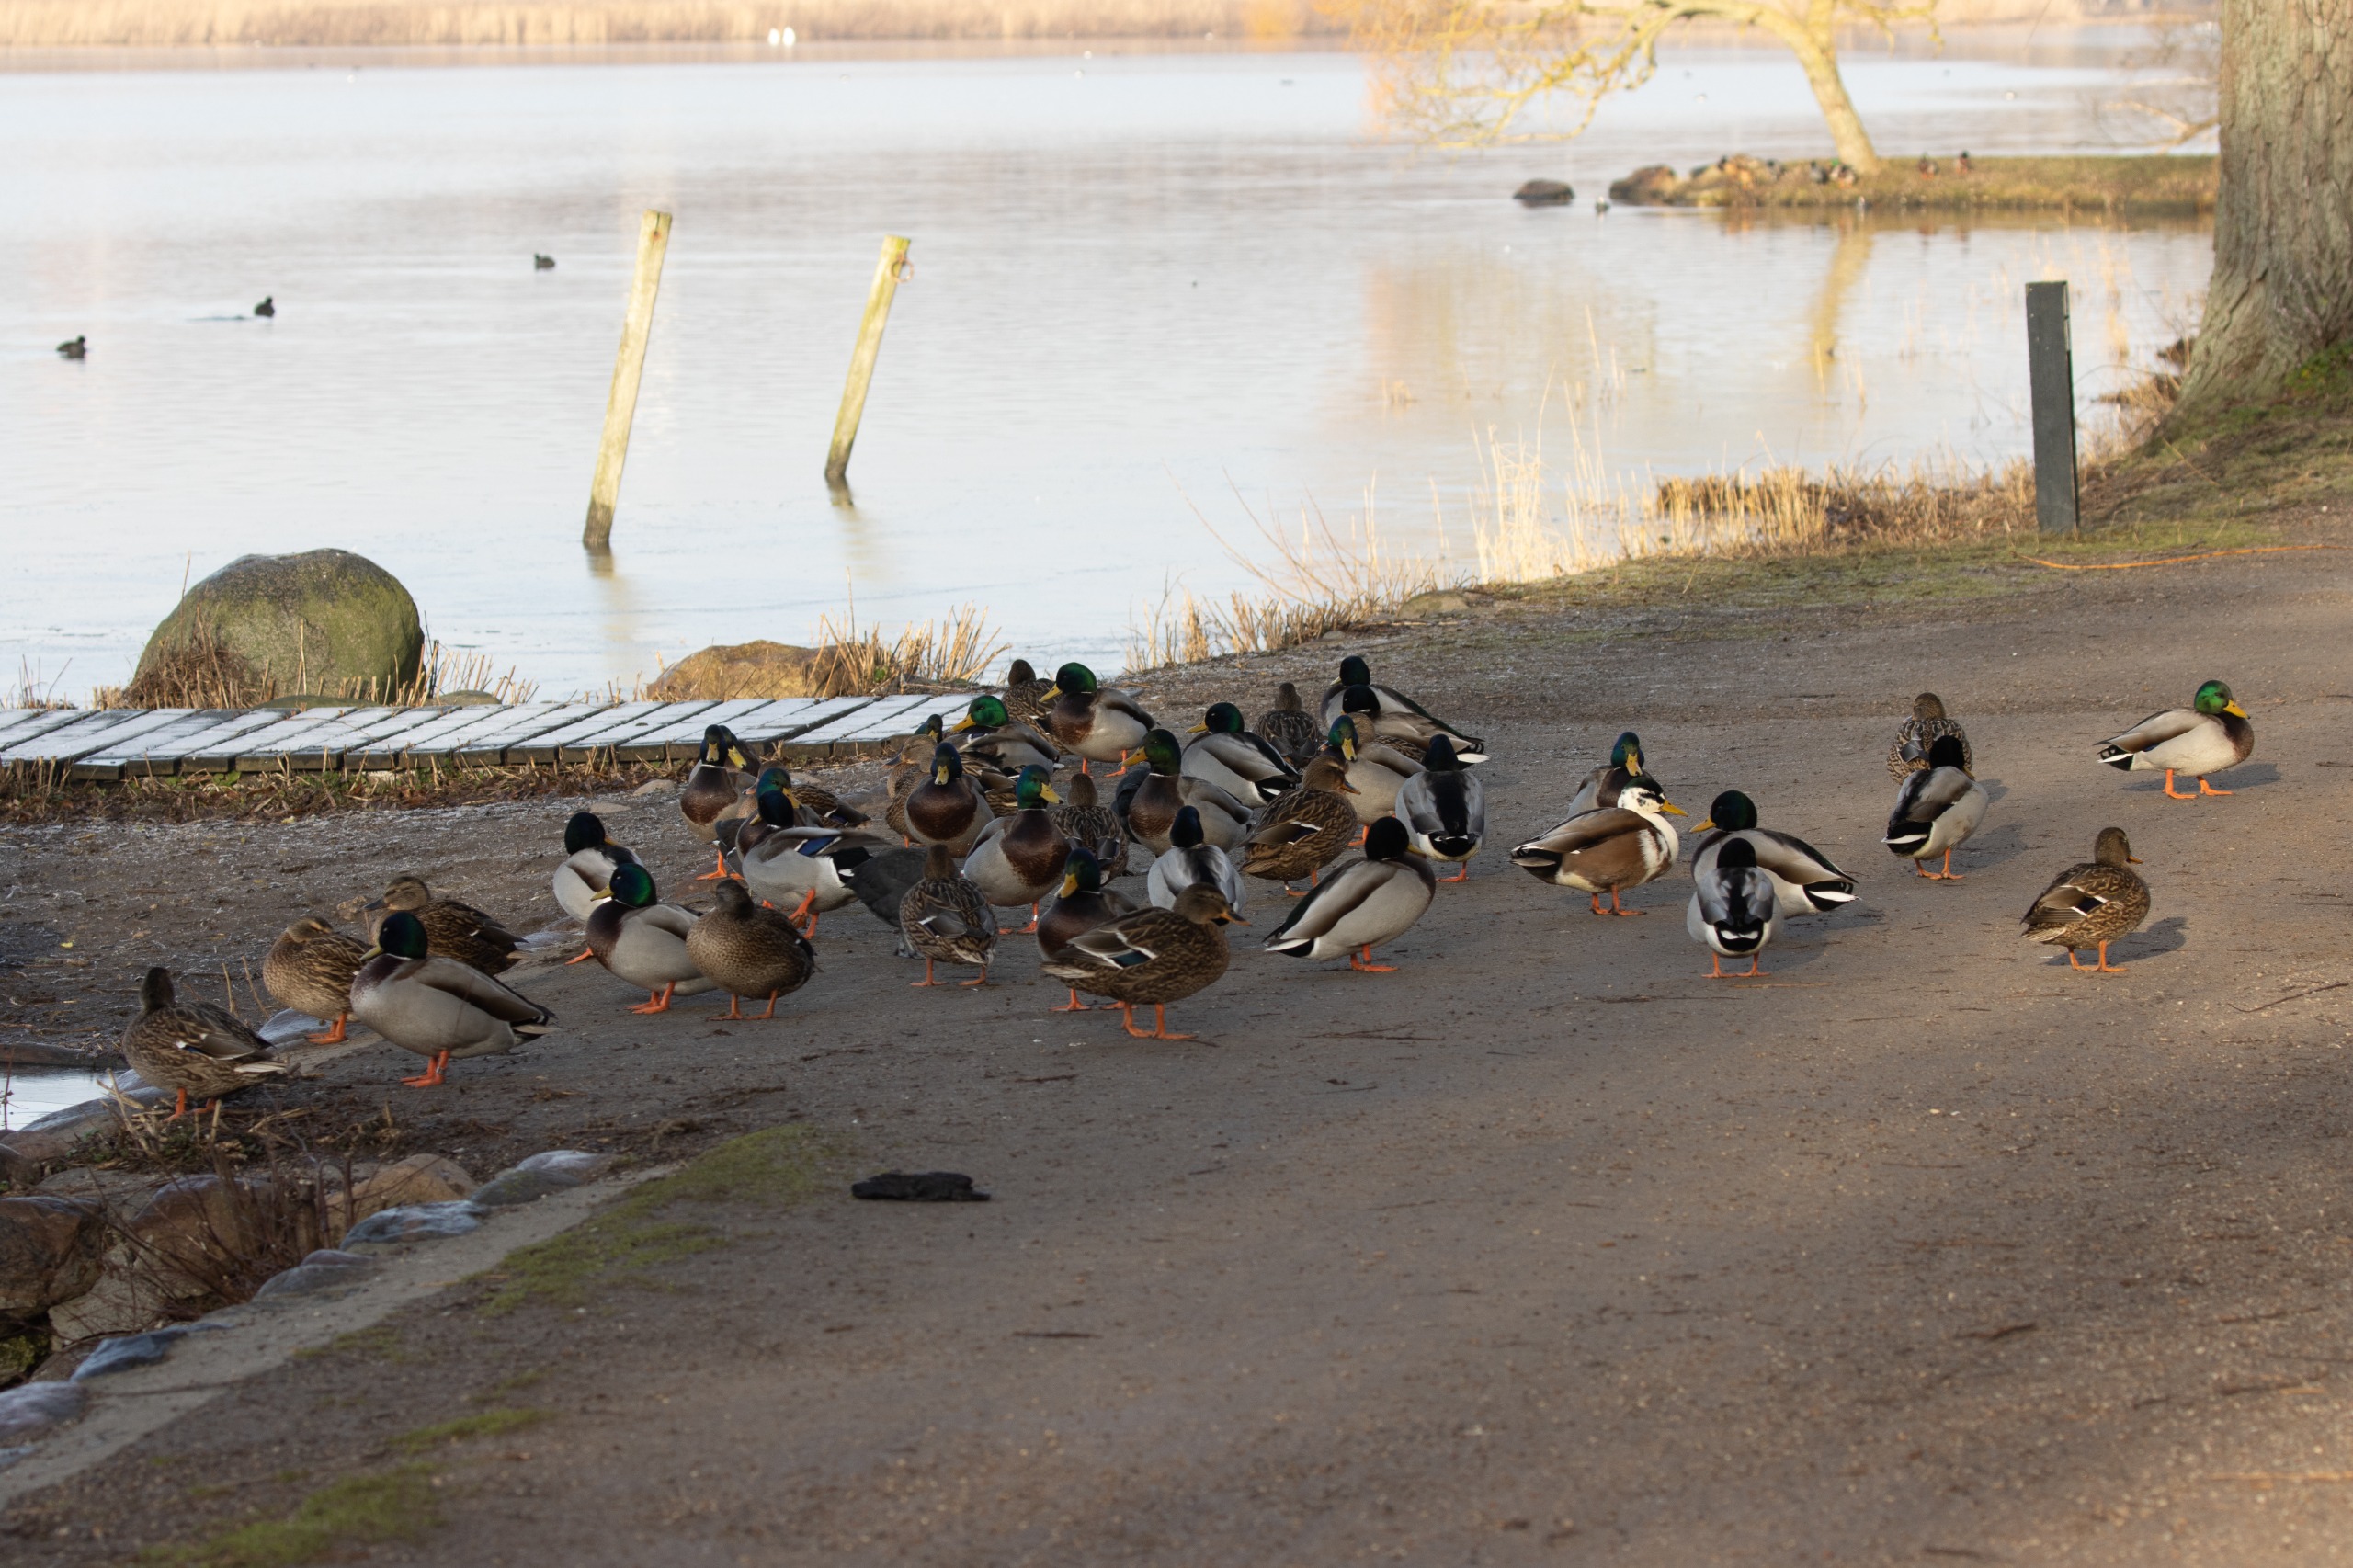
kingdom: Animalia
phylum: Chordata
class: Aves
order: Anseriformes
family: Anatidae
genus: Anas
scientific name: Anas platyrhynchos
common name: Gråand
